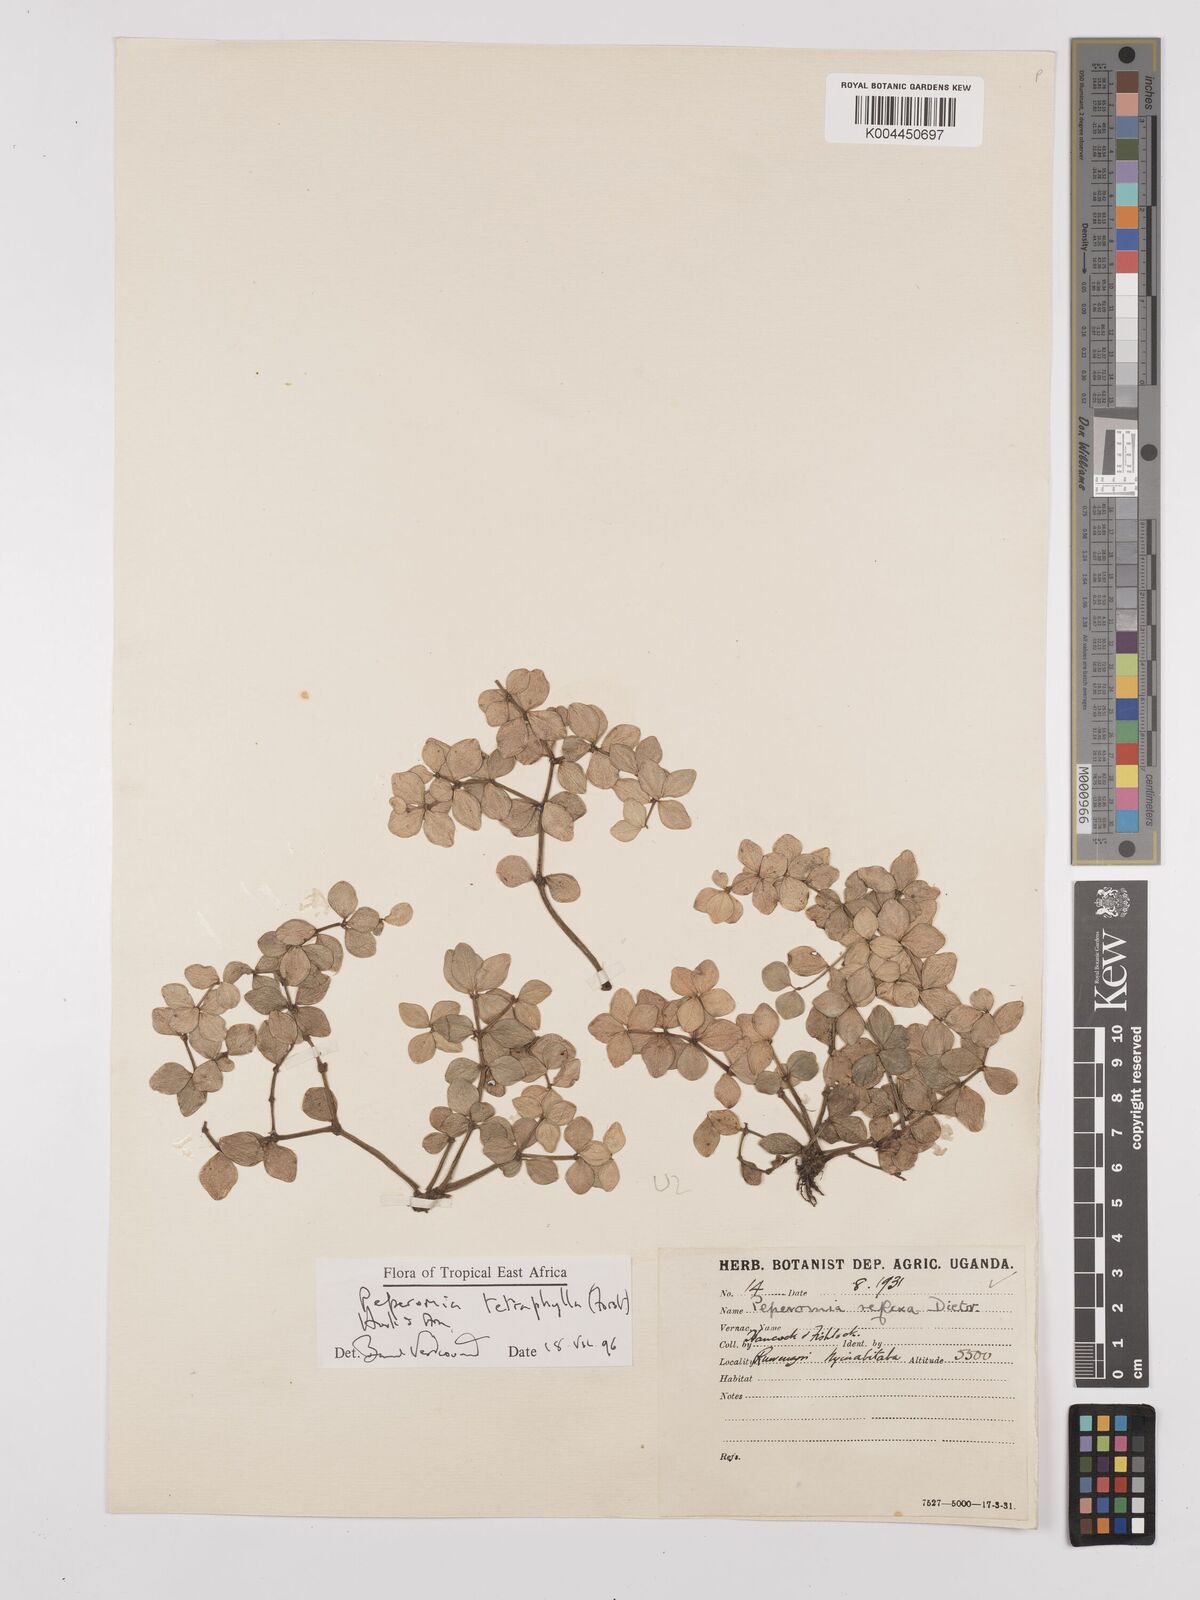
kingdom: Plantae
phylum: Tracheophyta
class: Magnoliopsida
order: Piperales
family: Piperaceae
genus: Peperomia
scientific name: Peperomia tetraphylla
